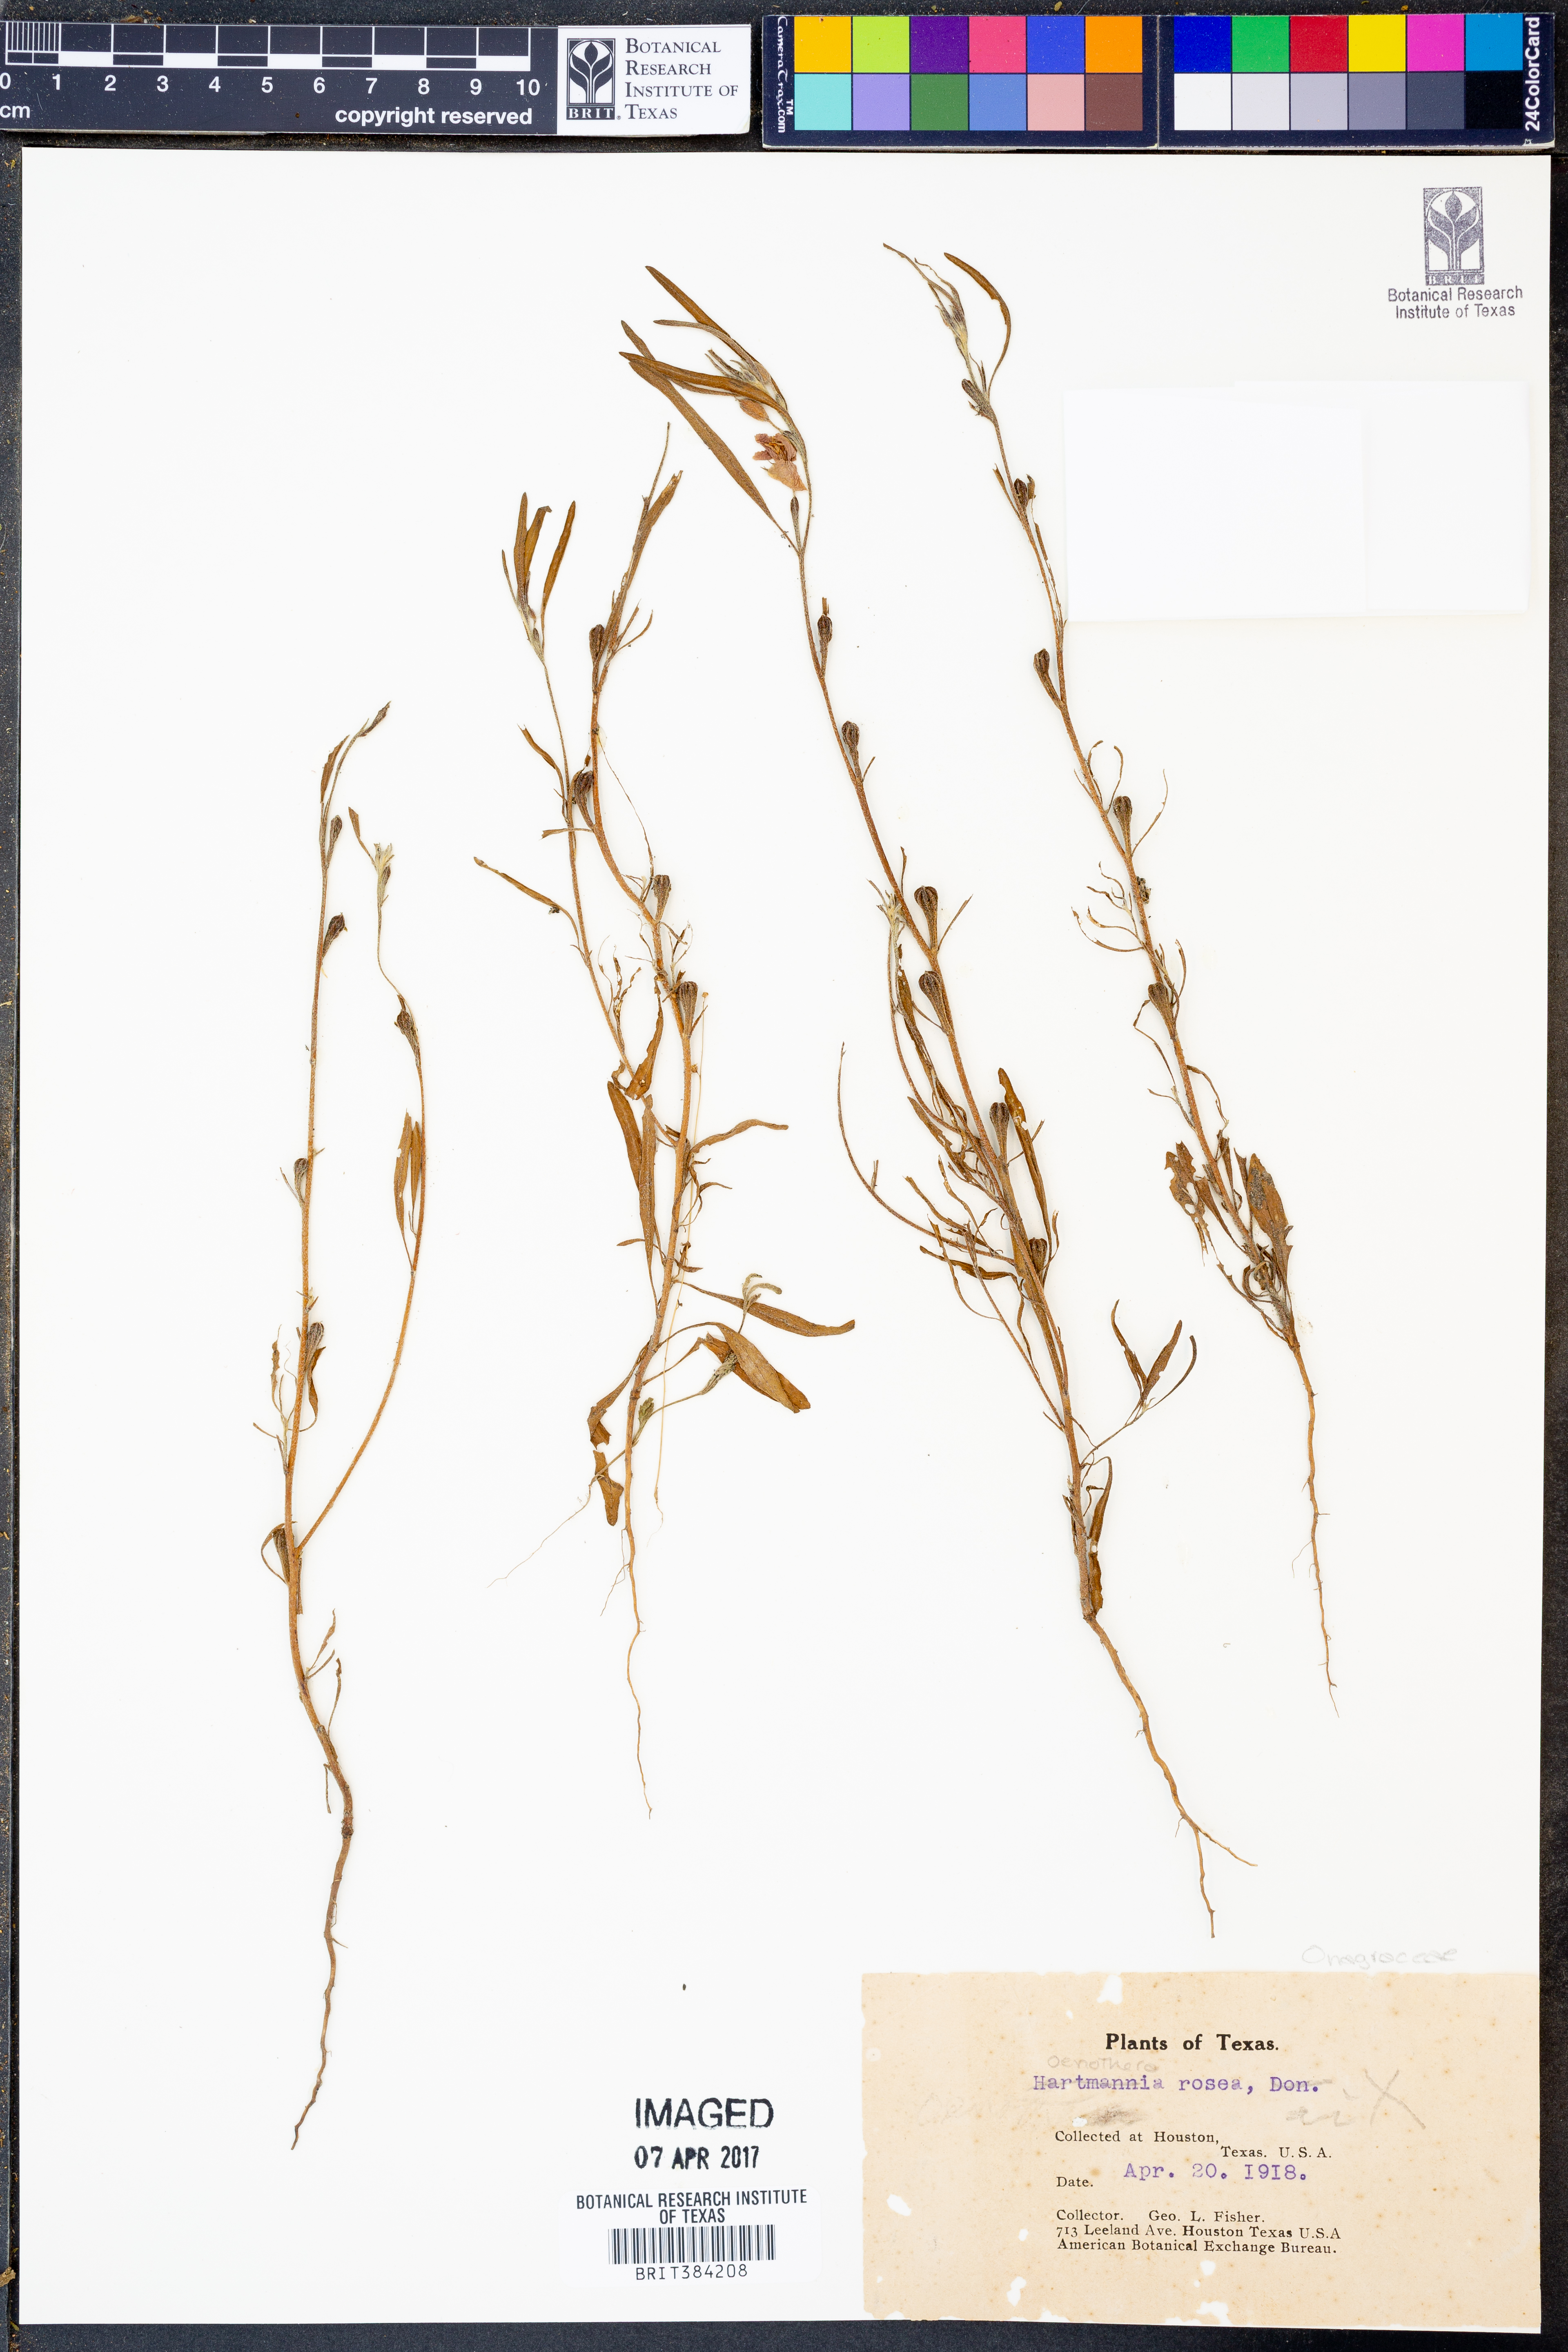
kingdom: Plantae
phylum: Tracheophyta
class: Magnoliopsida
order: Myrtales
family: Onagraceae
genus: Oenothera
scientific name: Oenothera rosea
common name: Rosy evening-primrose
